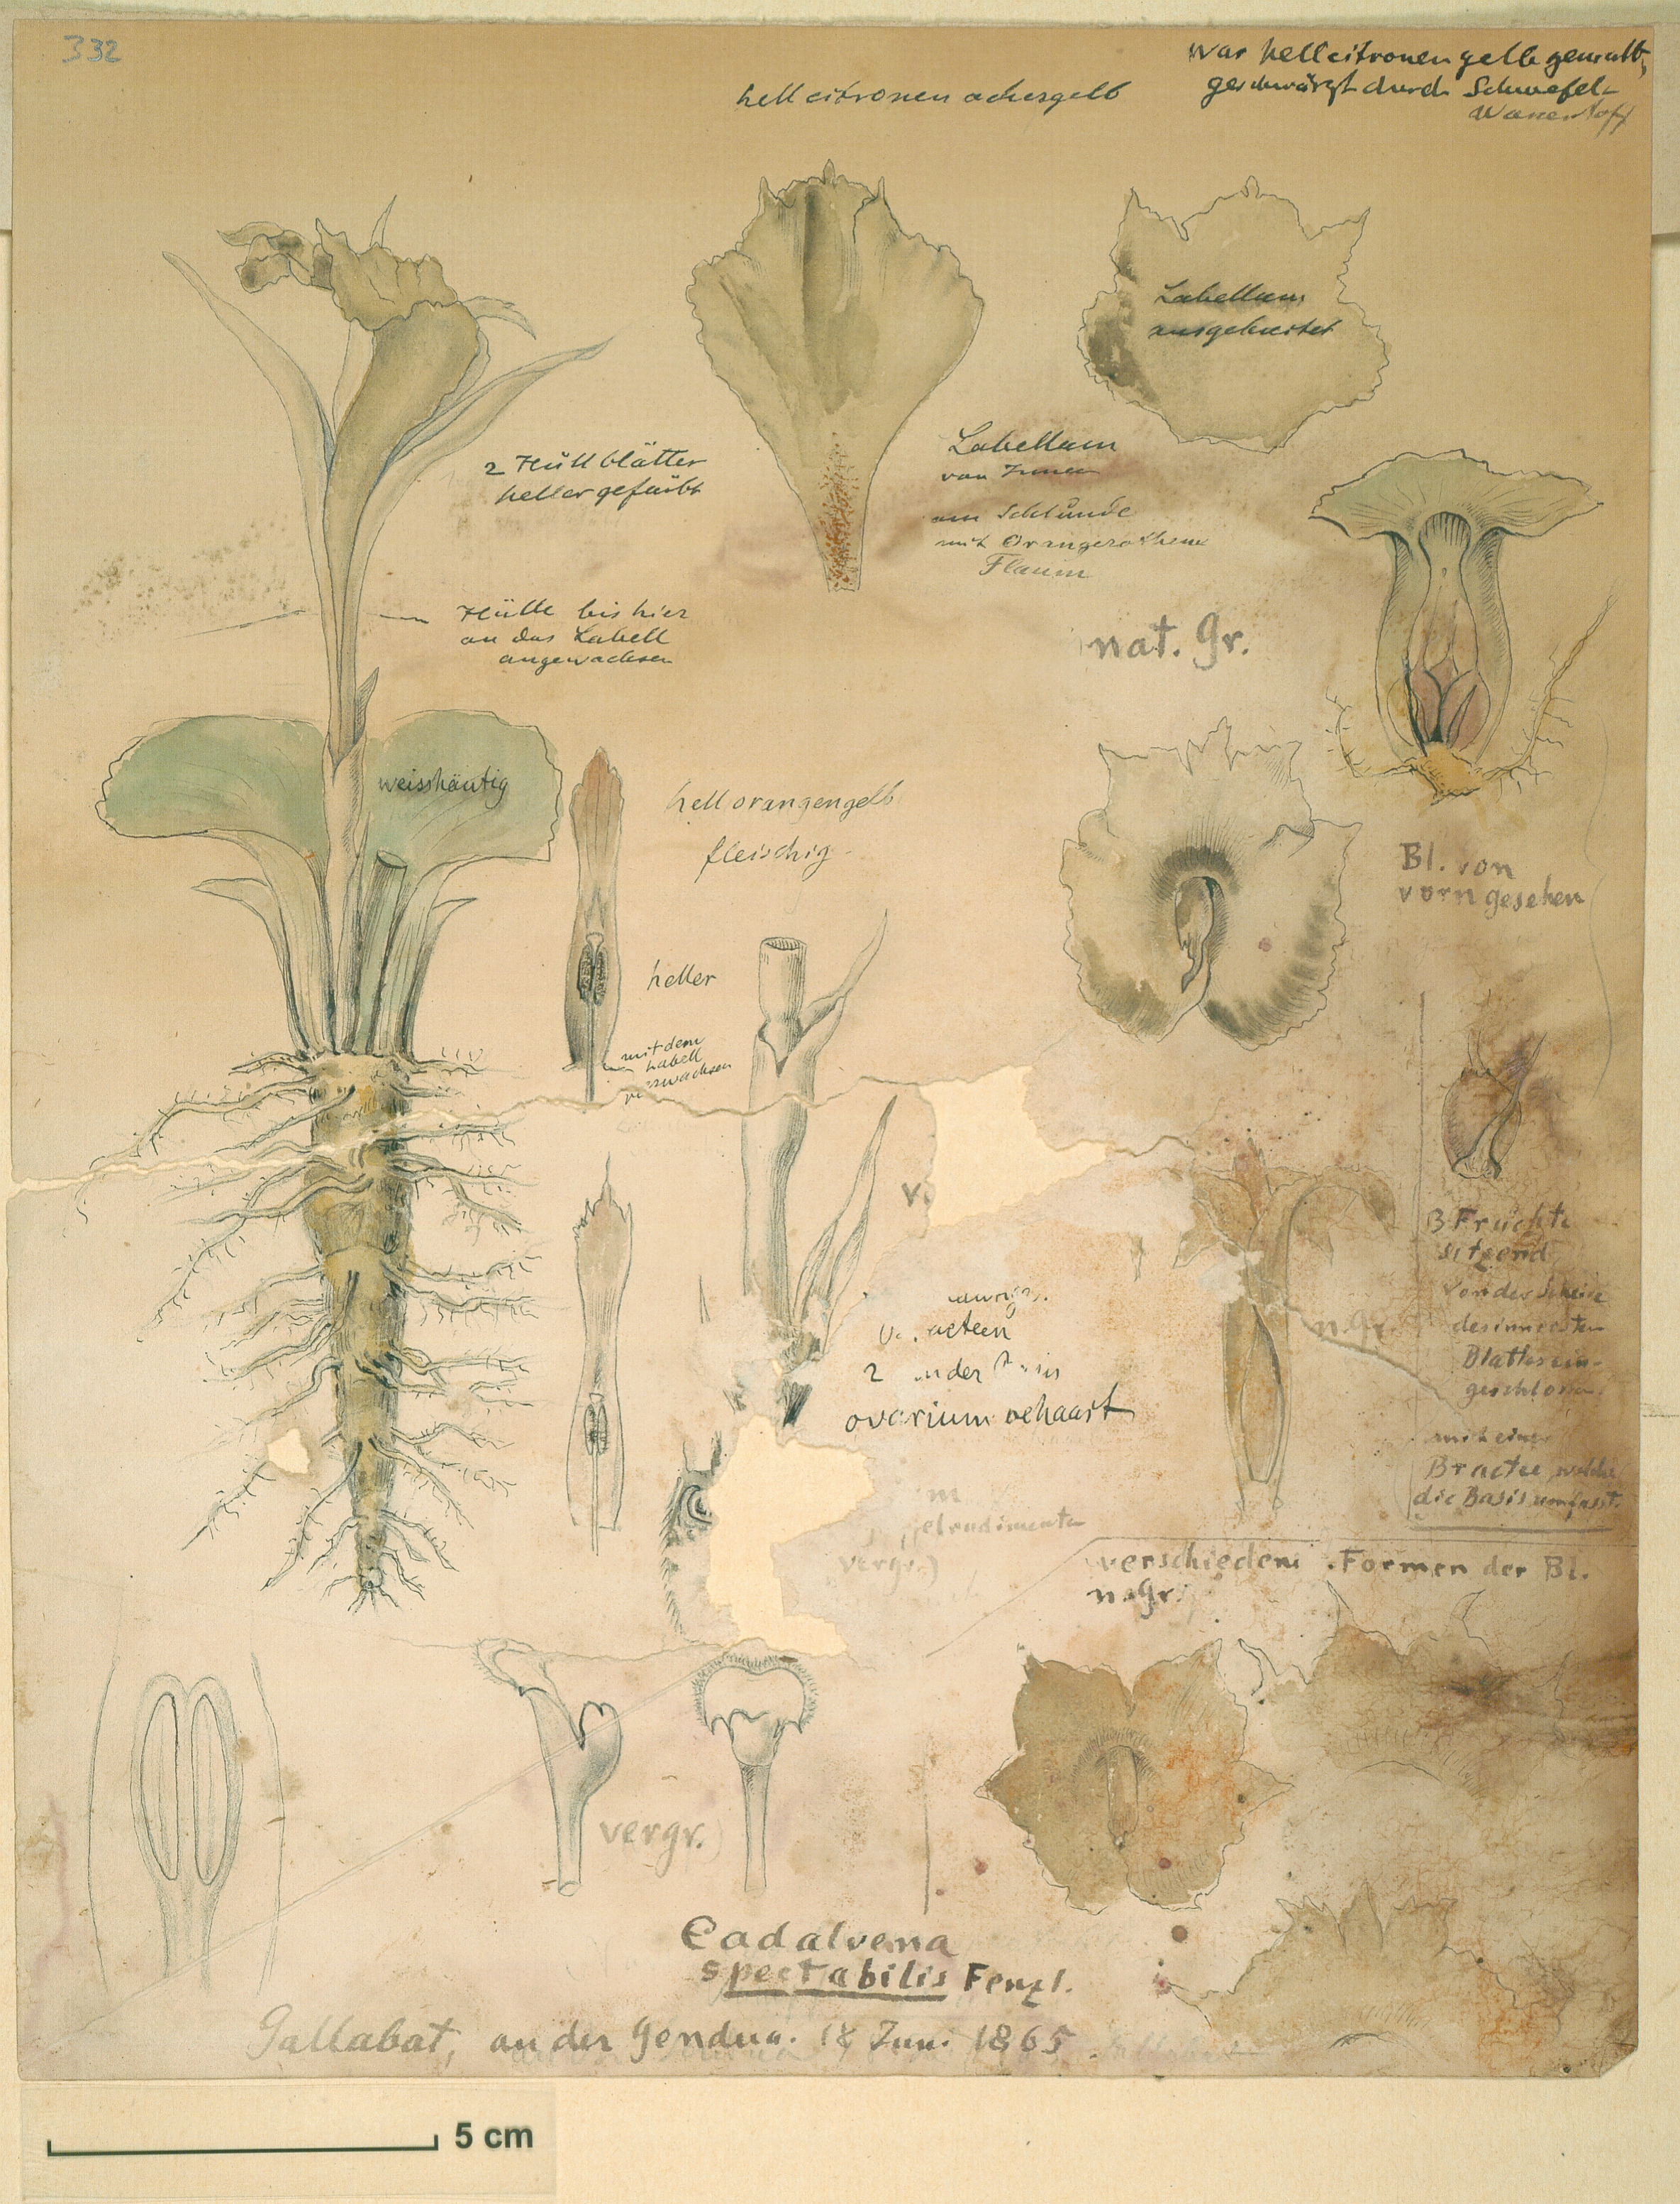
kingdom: Plantae
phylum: Tracheophyta
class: Liliopsida
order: Zingiberales
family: Costaceae
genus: Costus
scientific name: Costus spectabilis
